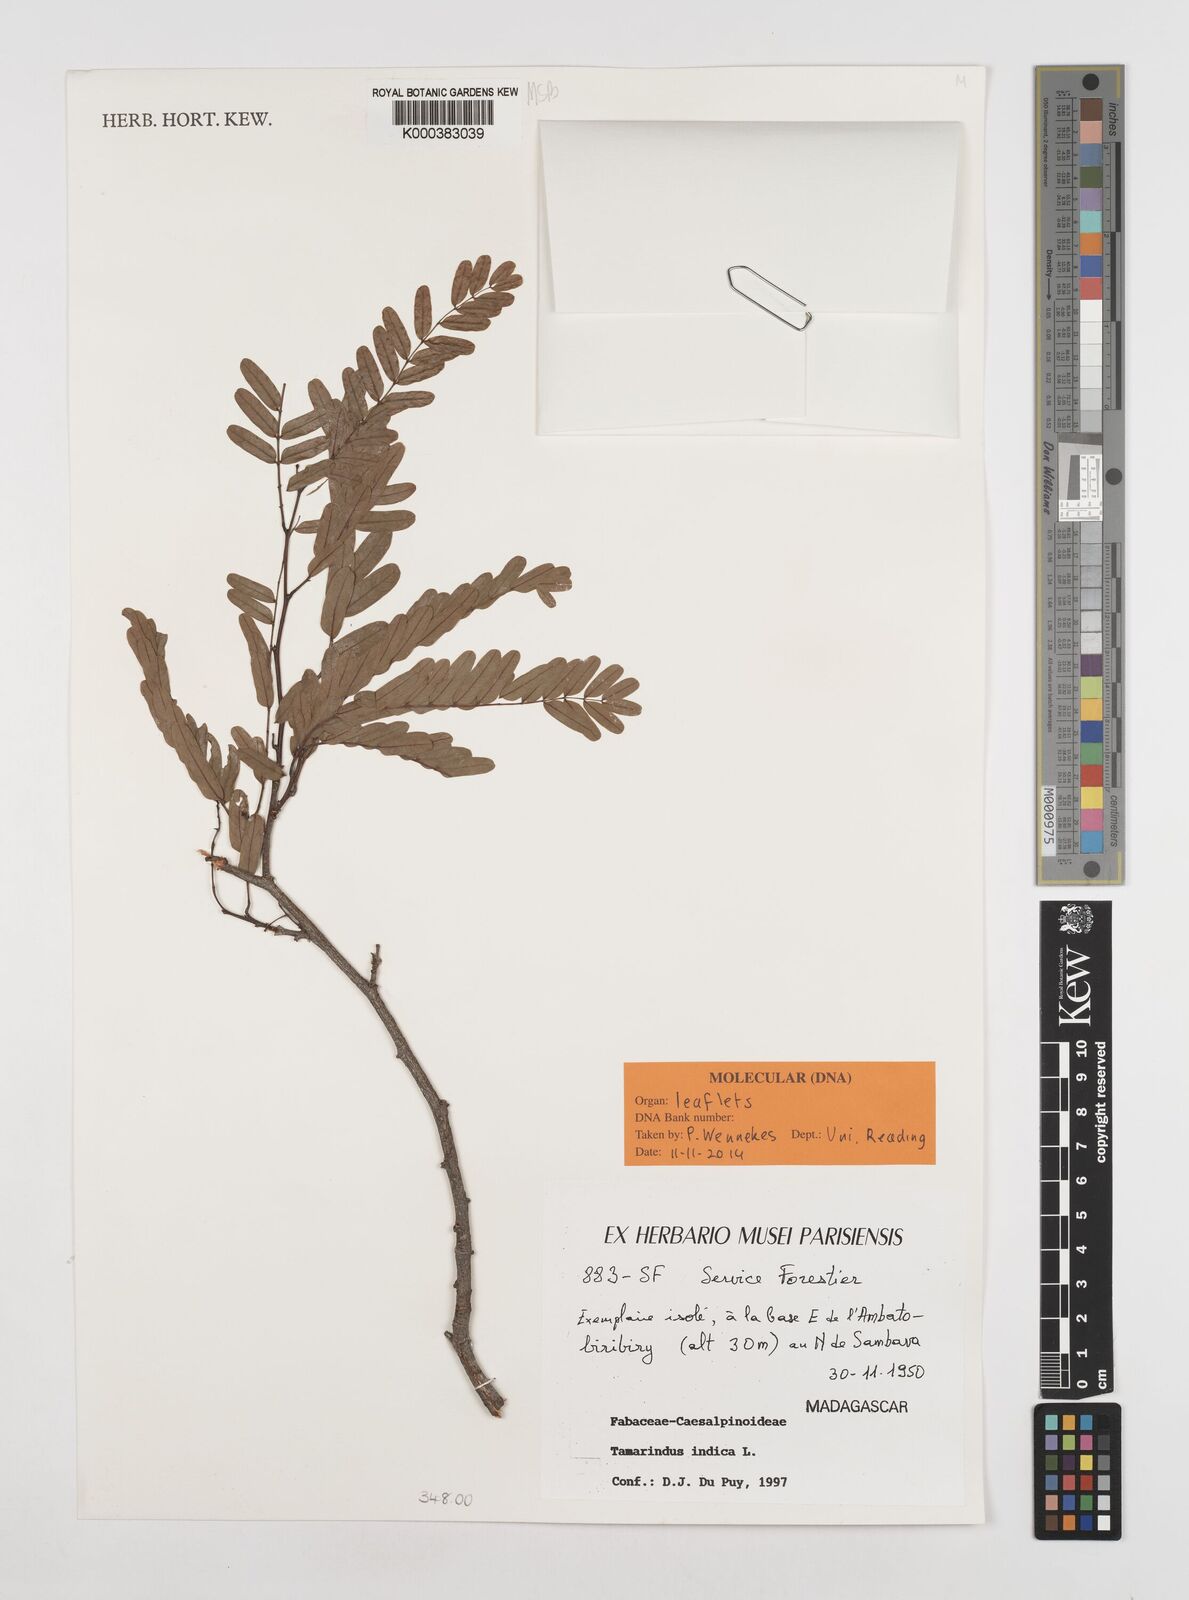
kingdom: Plantae
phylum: Tracheophyta
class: Magnoliopsida
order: Fabales
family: Fabaceae
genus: Tamarindus
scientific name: Tamarindus indica
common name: Tamarind
